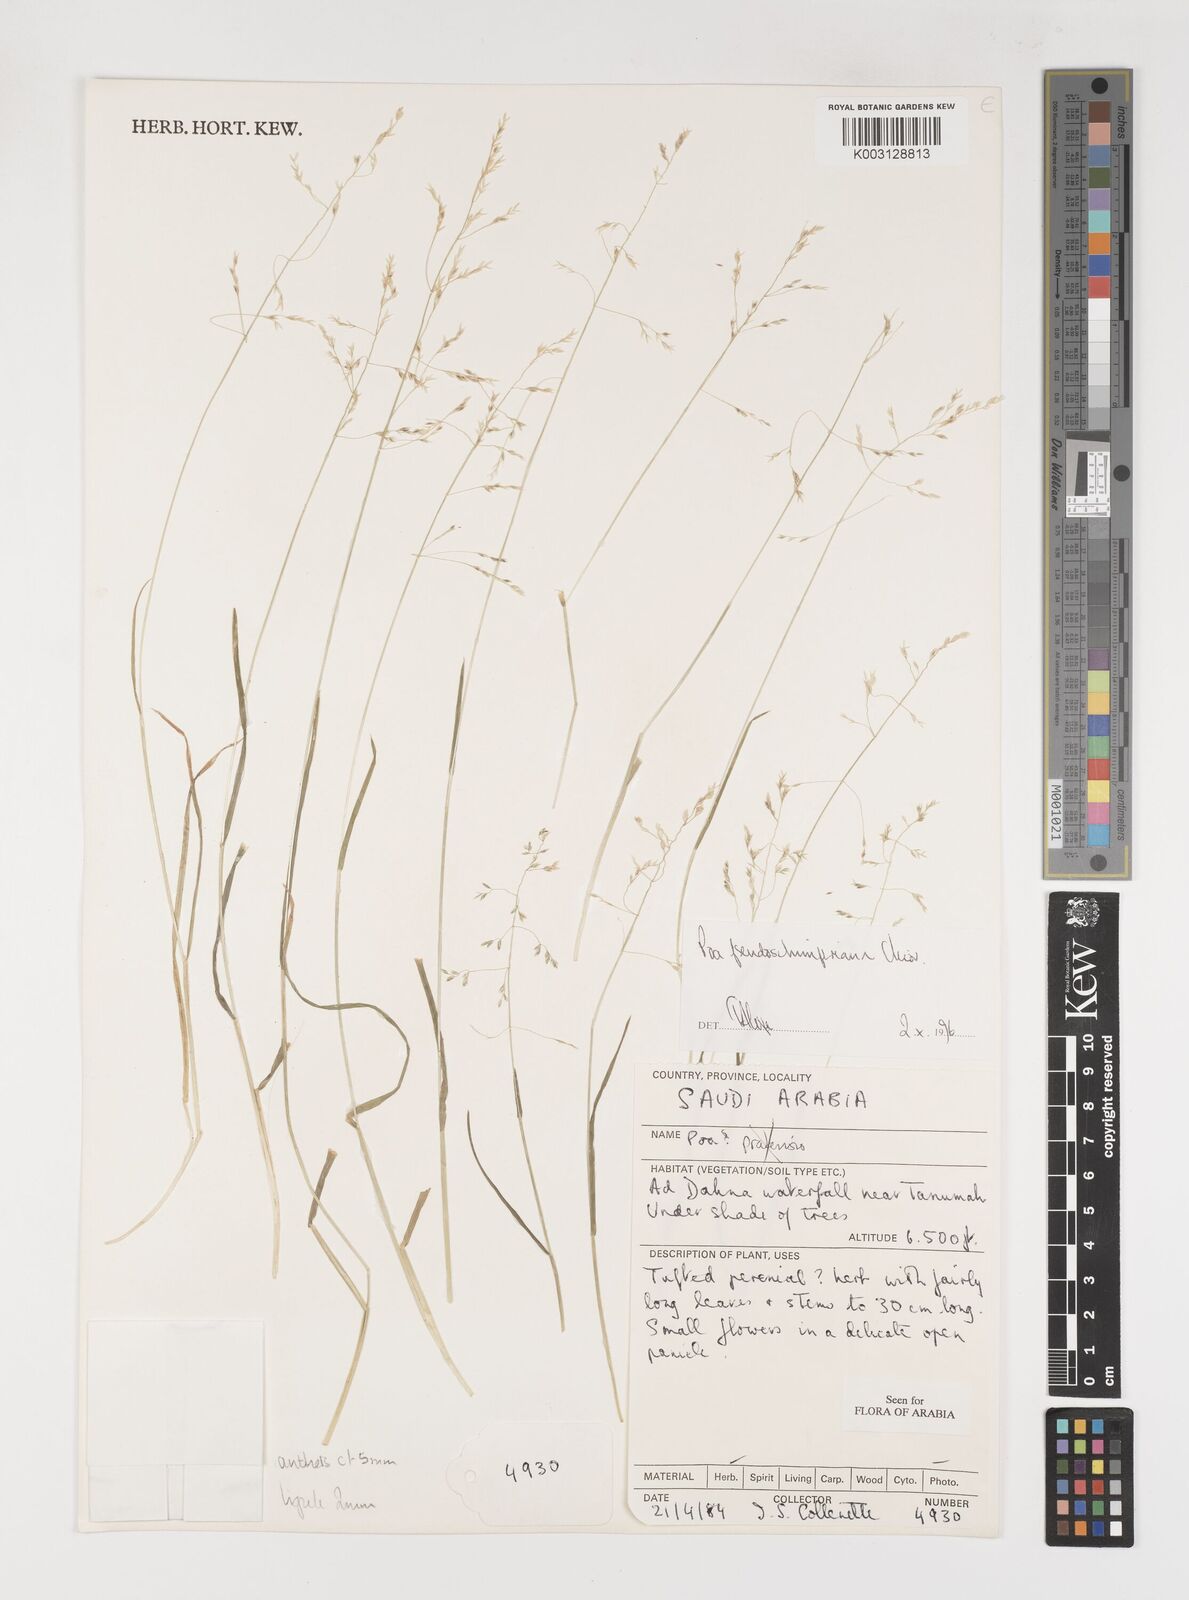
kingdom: Plantae
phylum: Tracheophyta
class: Liliopsida
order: Poales
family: Poaceae
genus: Poa
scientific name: Poa pseudoschimperiana
